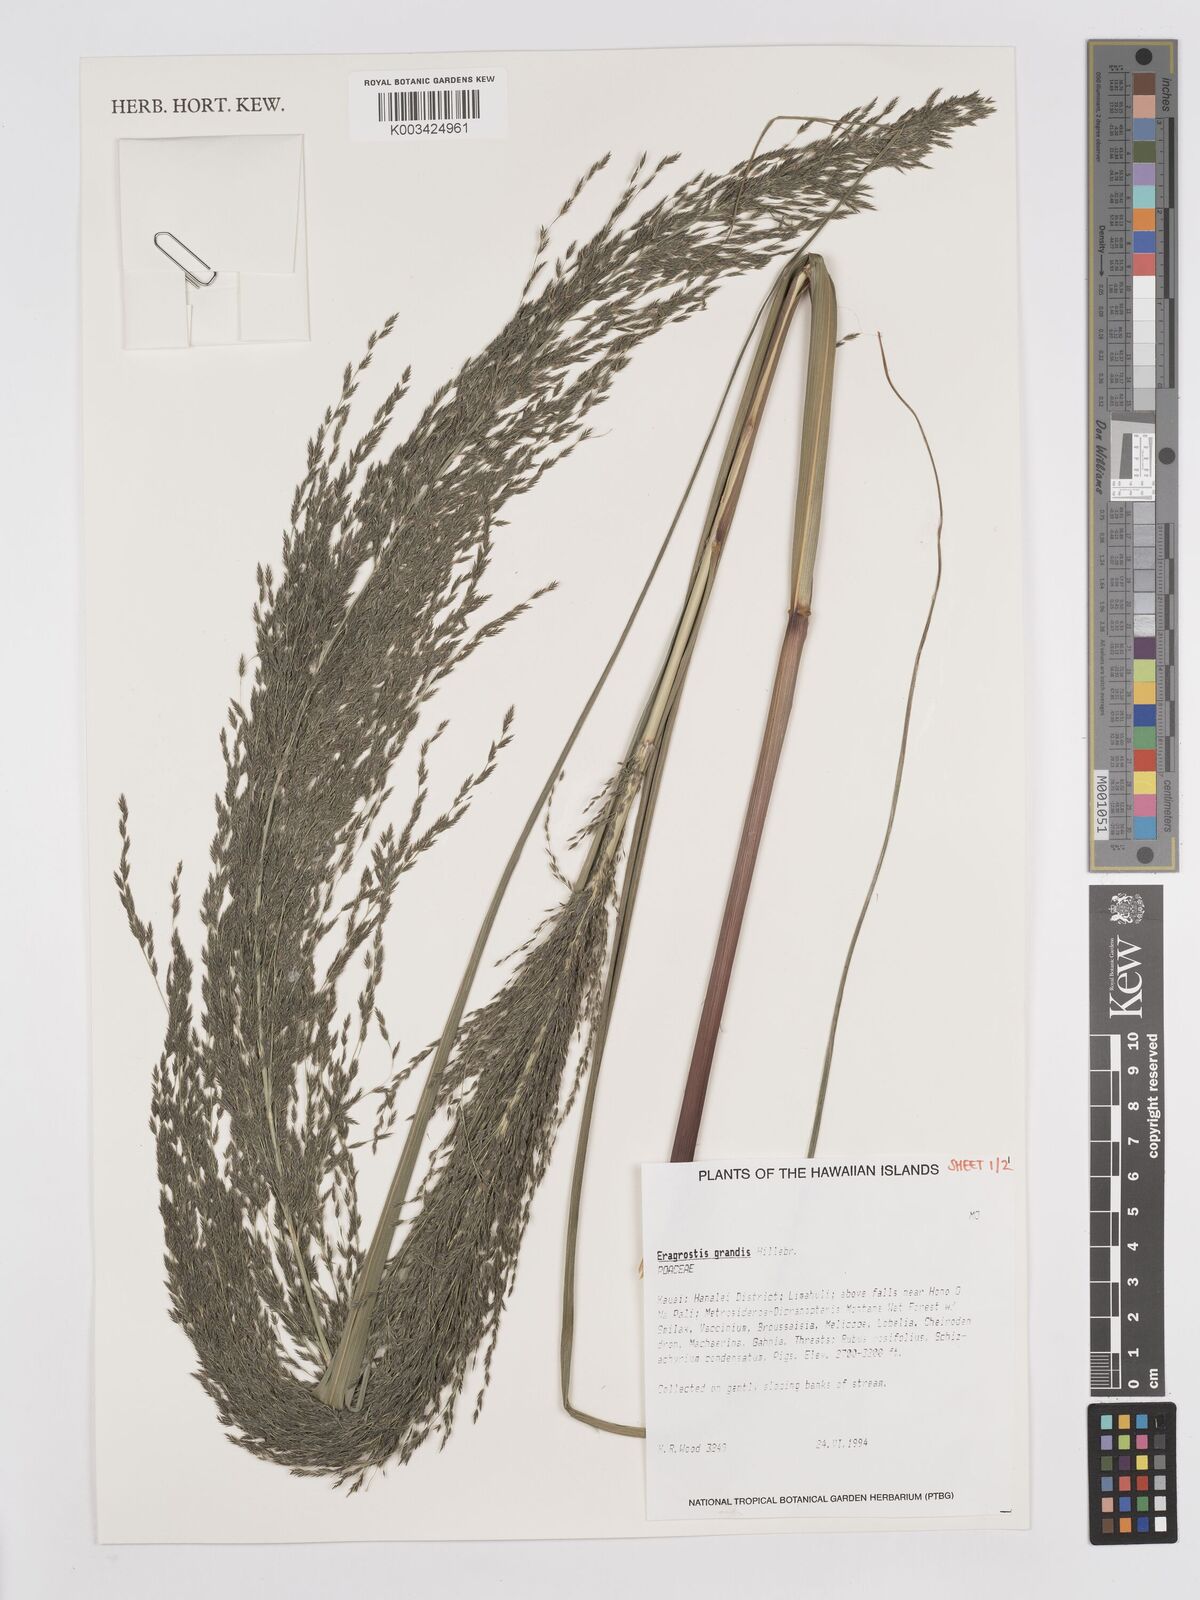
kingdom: Plantae
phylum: Tracheophyta
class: Liliopsida
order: Poales
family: Poaceae
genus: Eragrostis
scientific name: Eragrostis grandis
